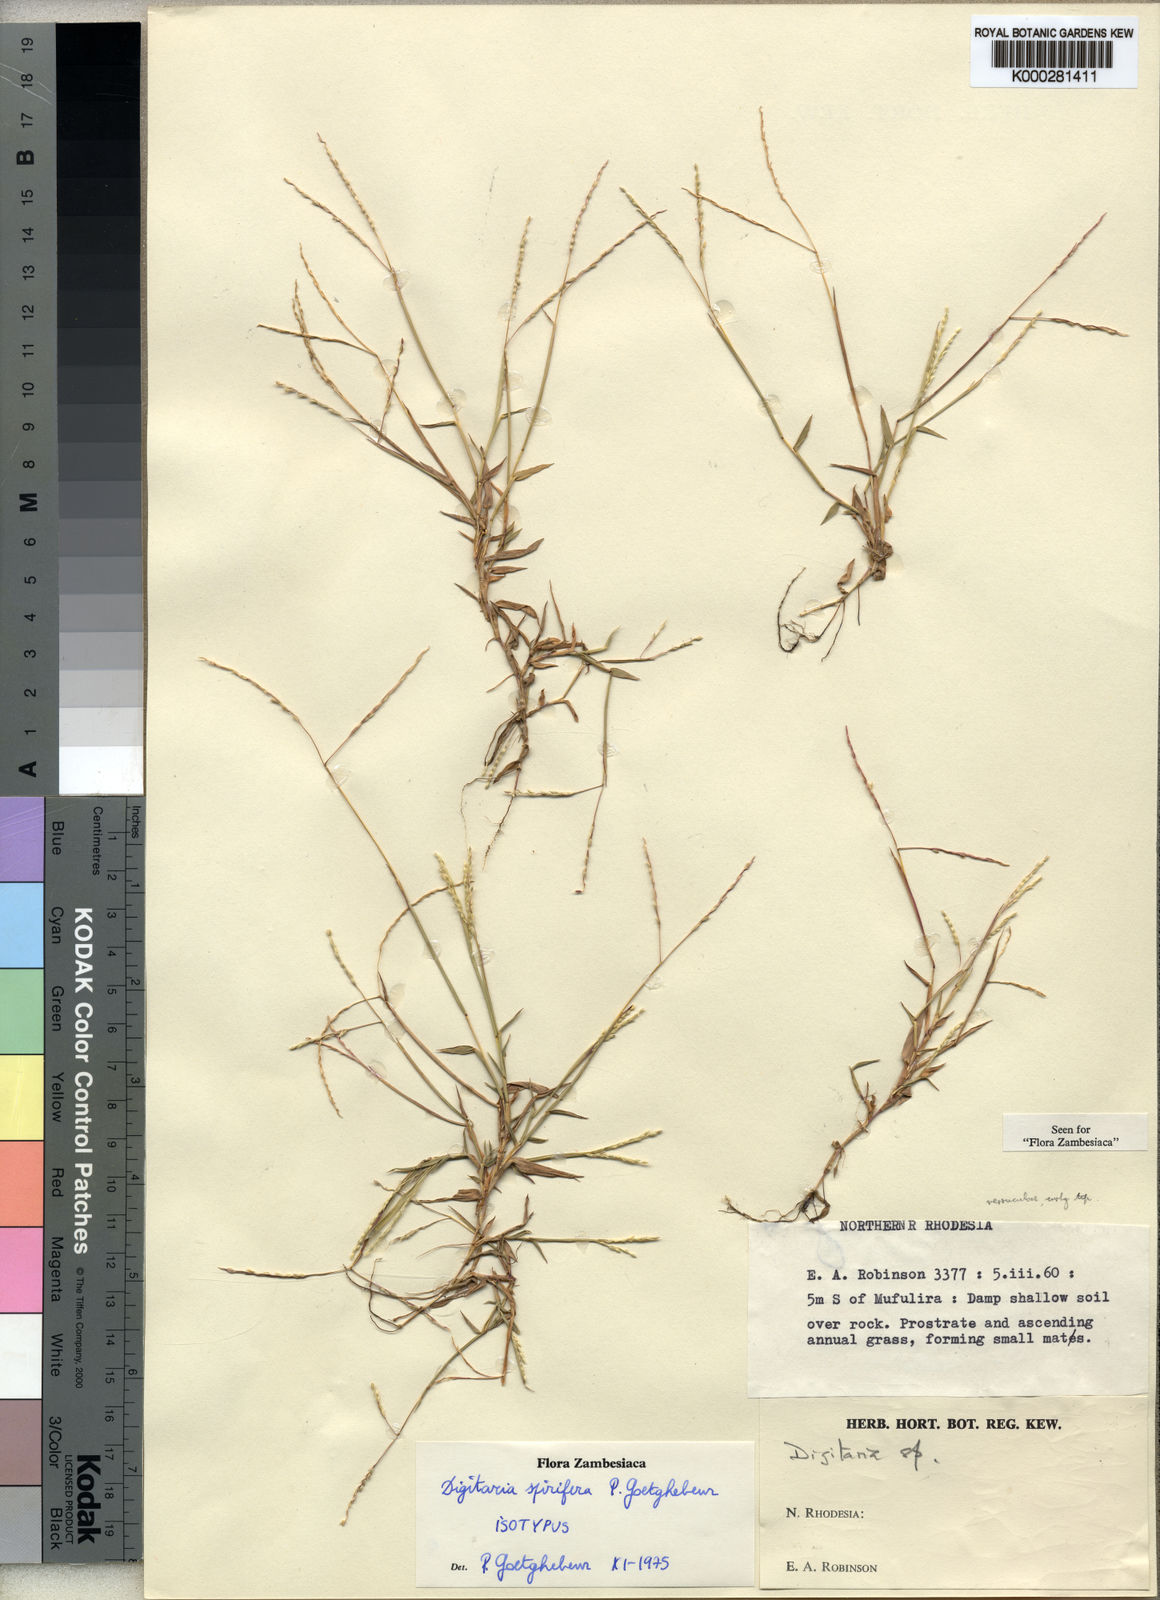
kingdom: Plantae
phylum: Tracheophyta
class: Liliopsida
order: Poales
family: Poaceae
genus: Digitaria
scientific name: Digitaria
